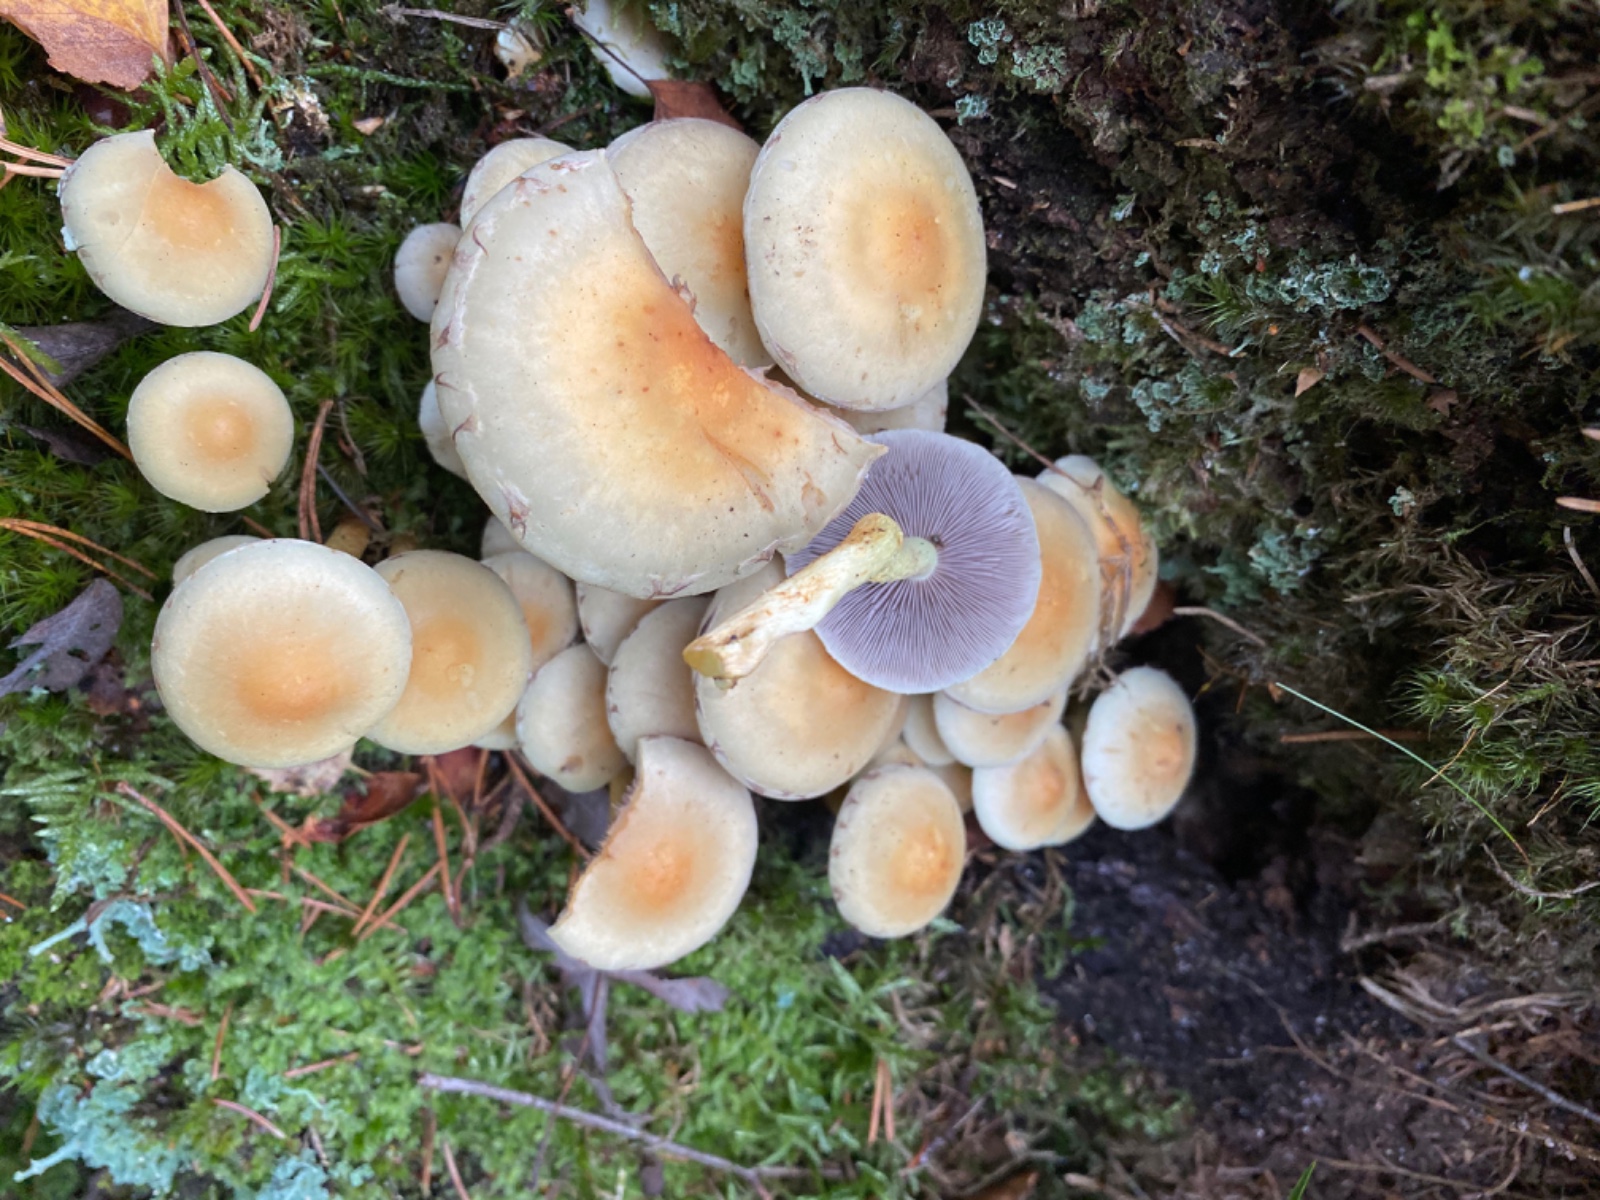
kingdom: Fungi
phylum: Basidiomycota
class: Agaricomycetes
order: Agaricales
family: Strophariaceae
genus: Hypholoma
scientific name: Hypholoma fasciculare
